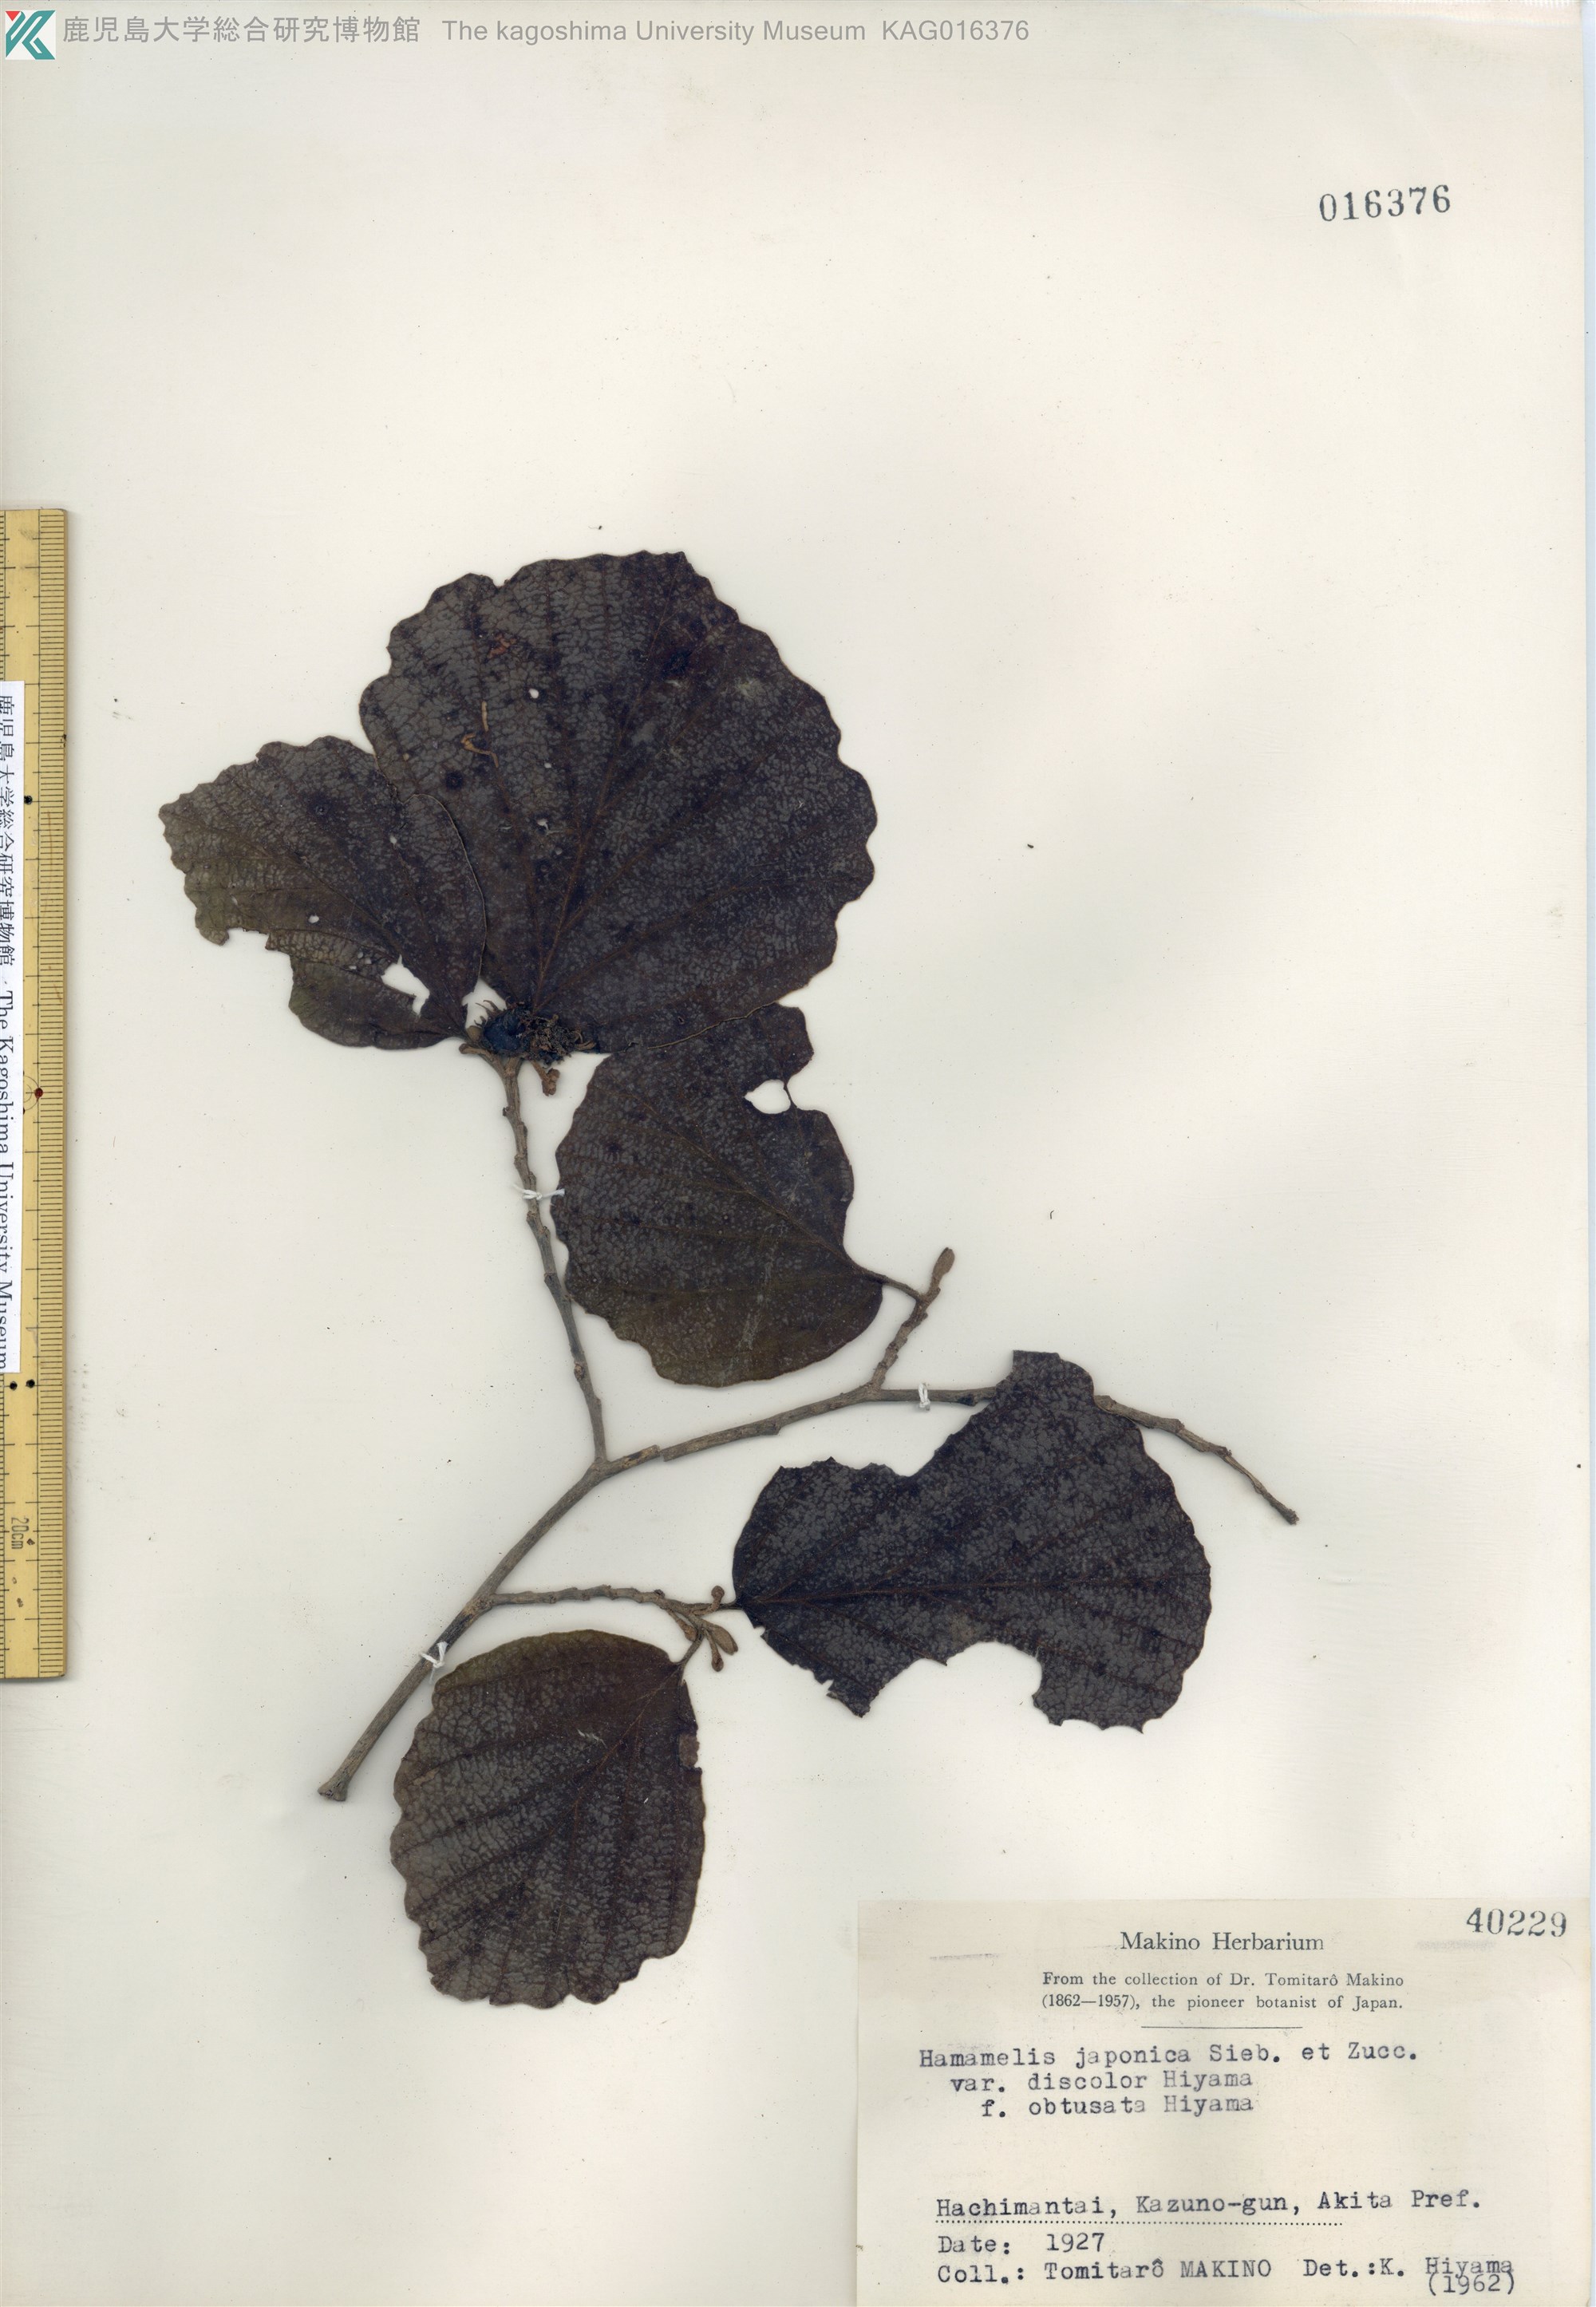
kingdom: Plantae
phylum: Tracheophyta
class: Magnoliopsida
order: Saxifragales
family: Hamamelidaceae
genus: Hamamelis
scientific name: Hamamelis japonica
